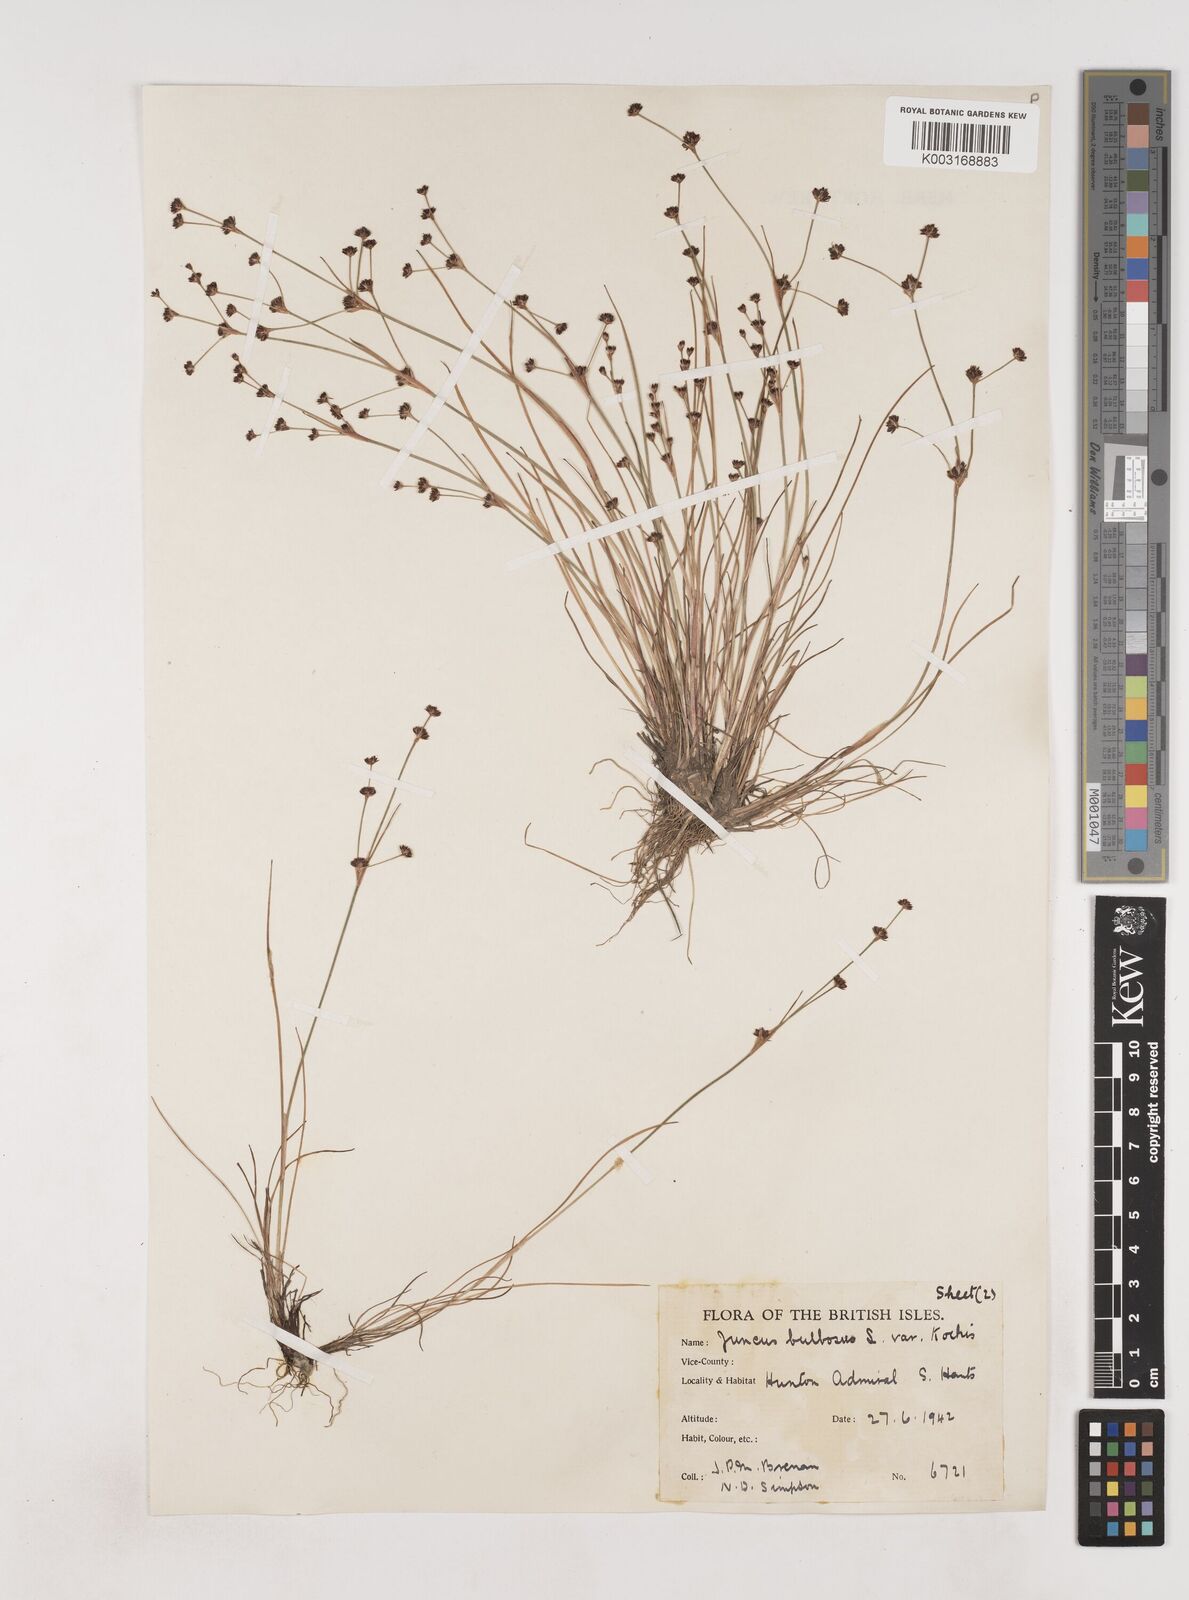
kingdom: Plantae
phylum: Tracheophyta
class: Liliopsida
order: Poales
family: Juncaceae
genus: Juncus
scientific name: Juncus bulbosus
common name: Bulbous rush
